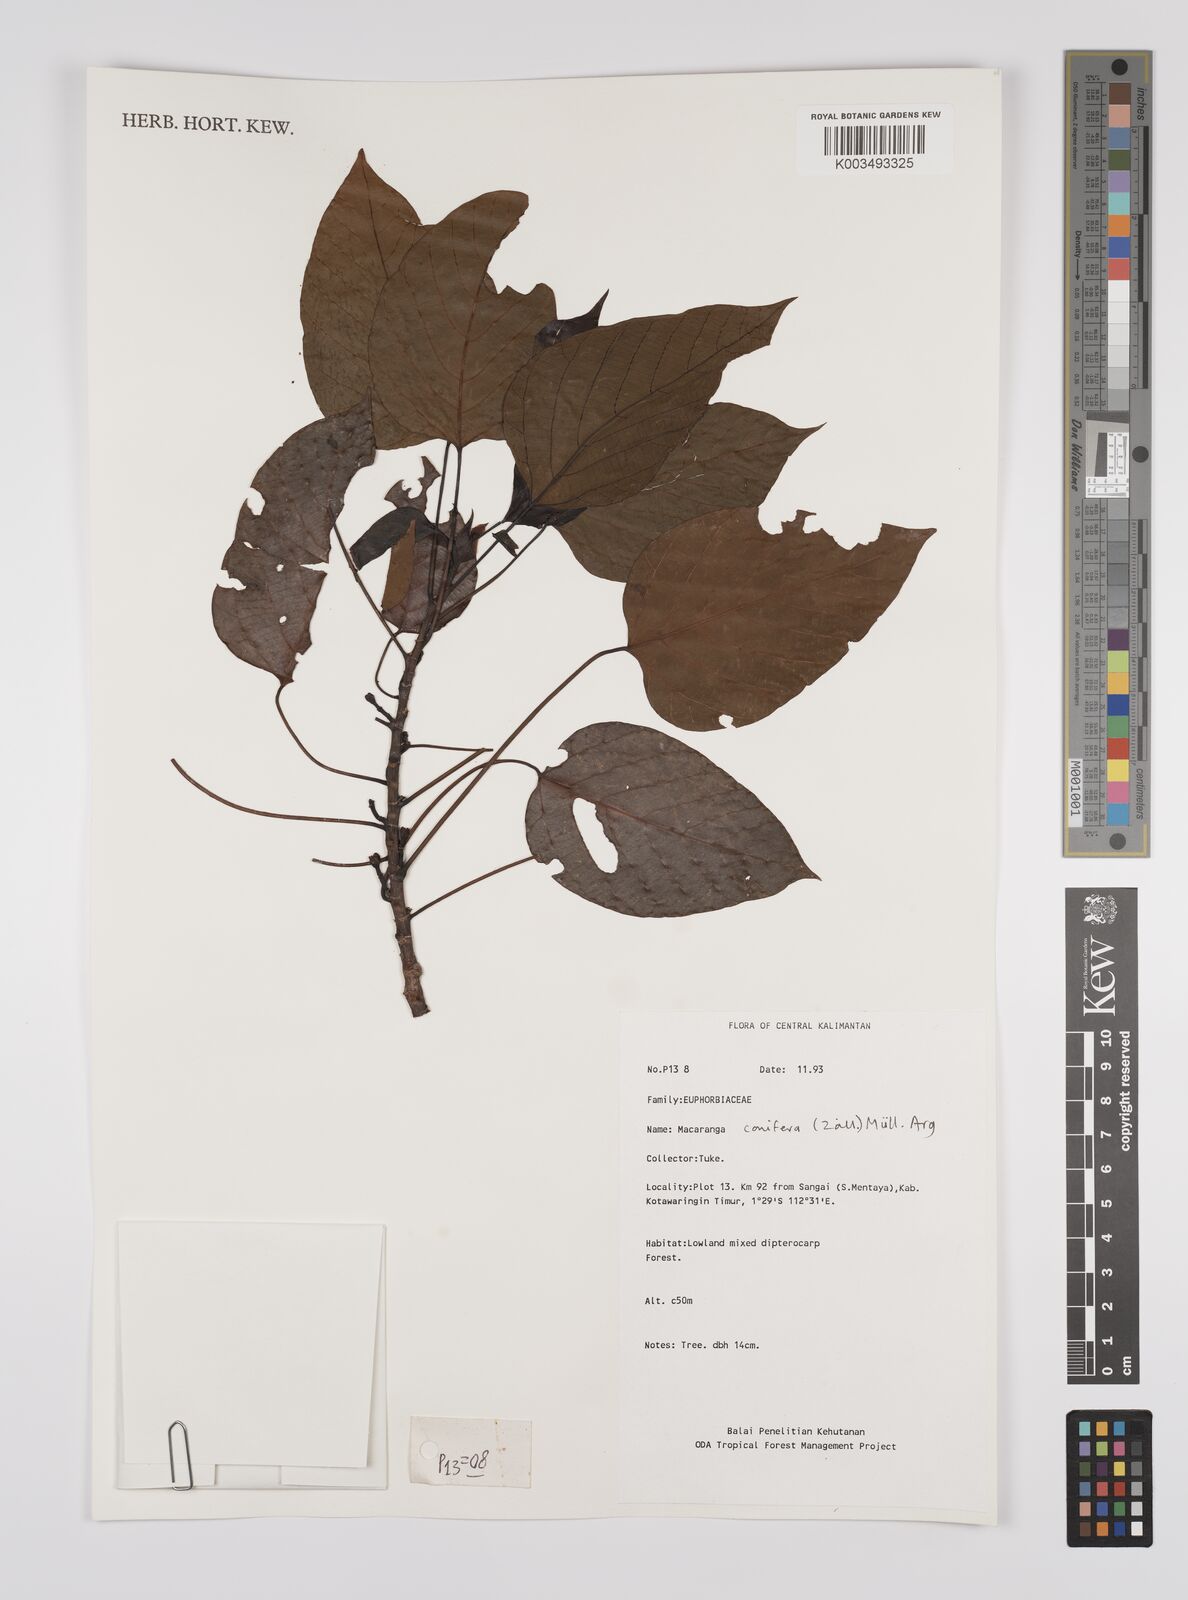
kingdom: Plantae
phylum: Tracheophyta
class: Magnoliopsida
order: Malpighiales
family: Euphorbiaceae
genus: Macaranga
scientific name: Macaranga conifera
